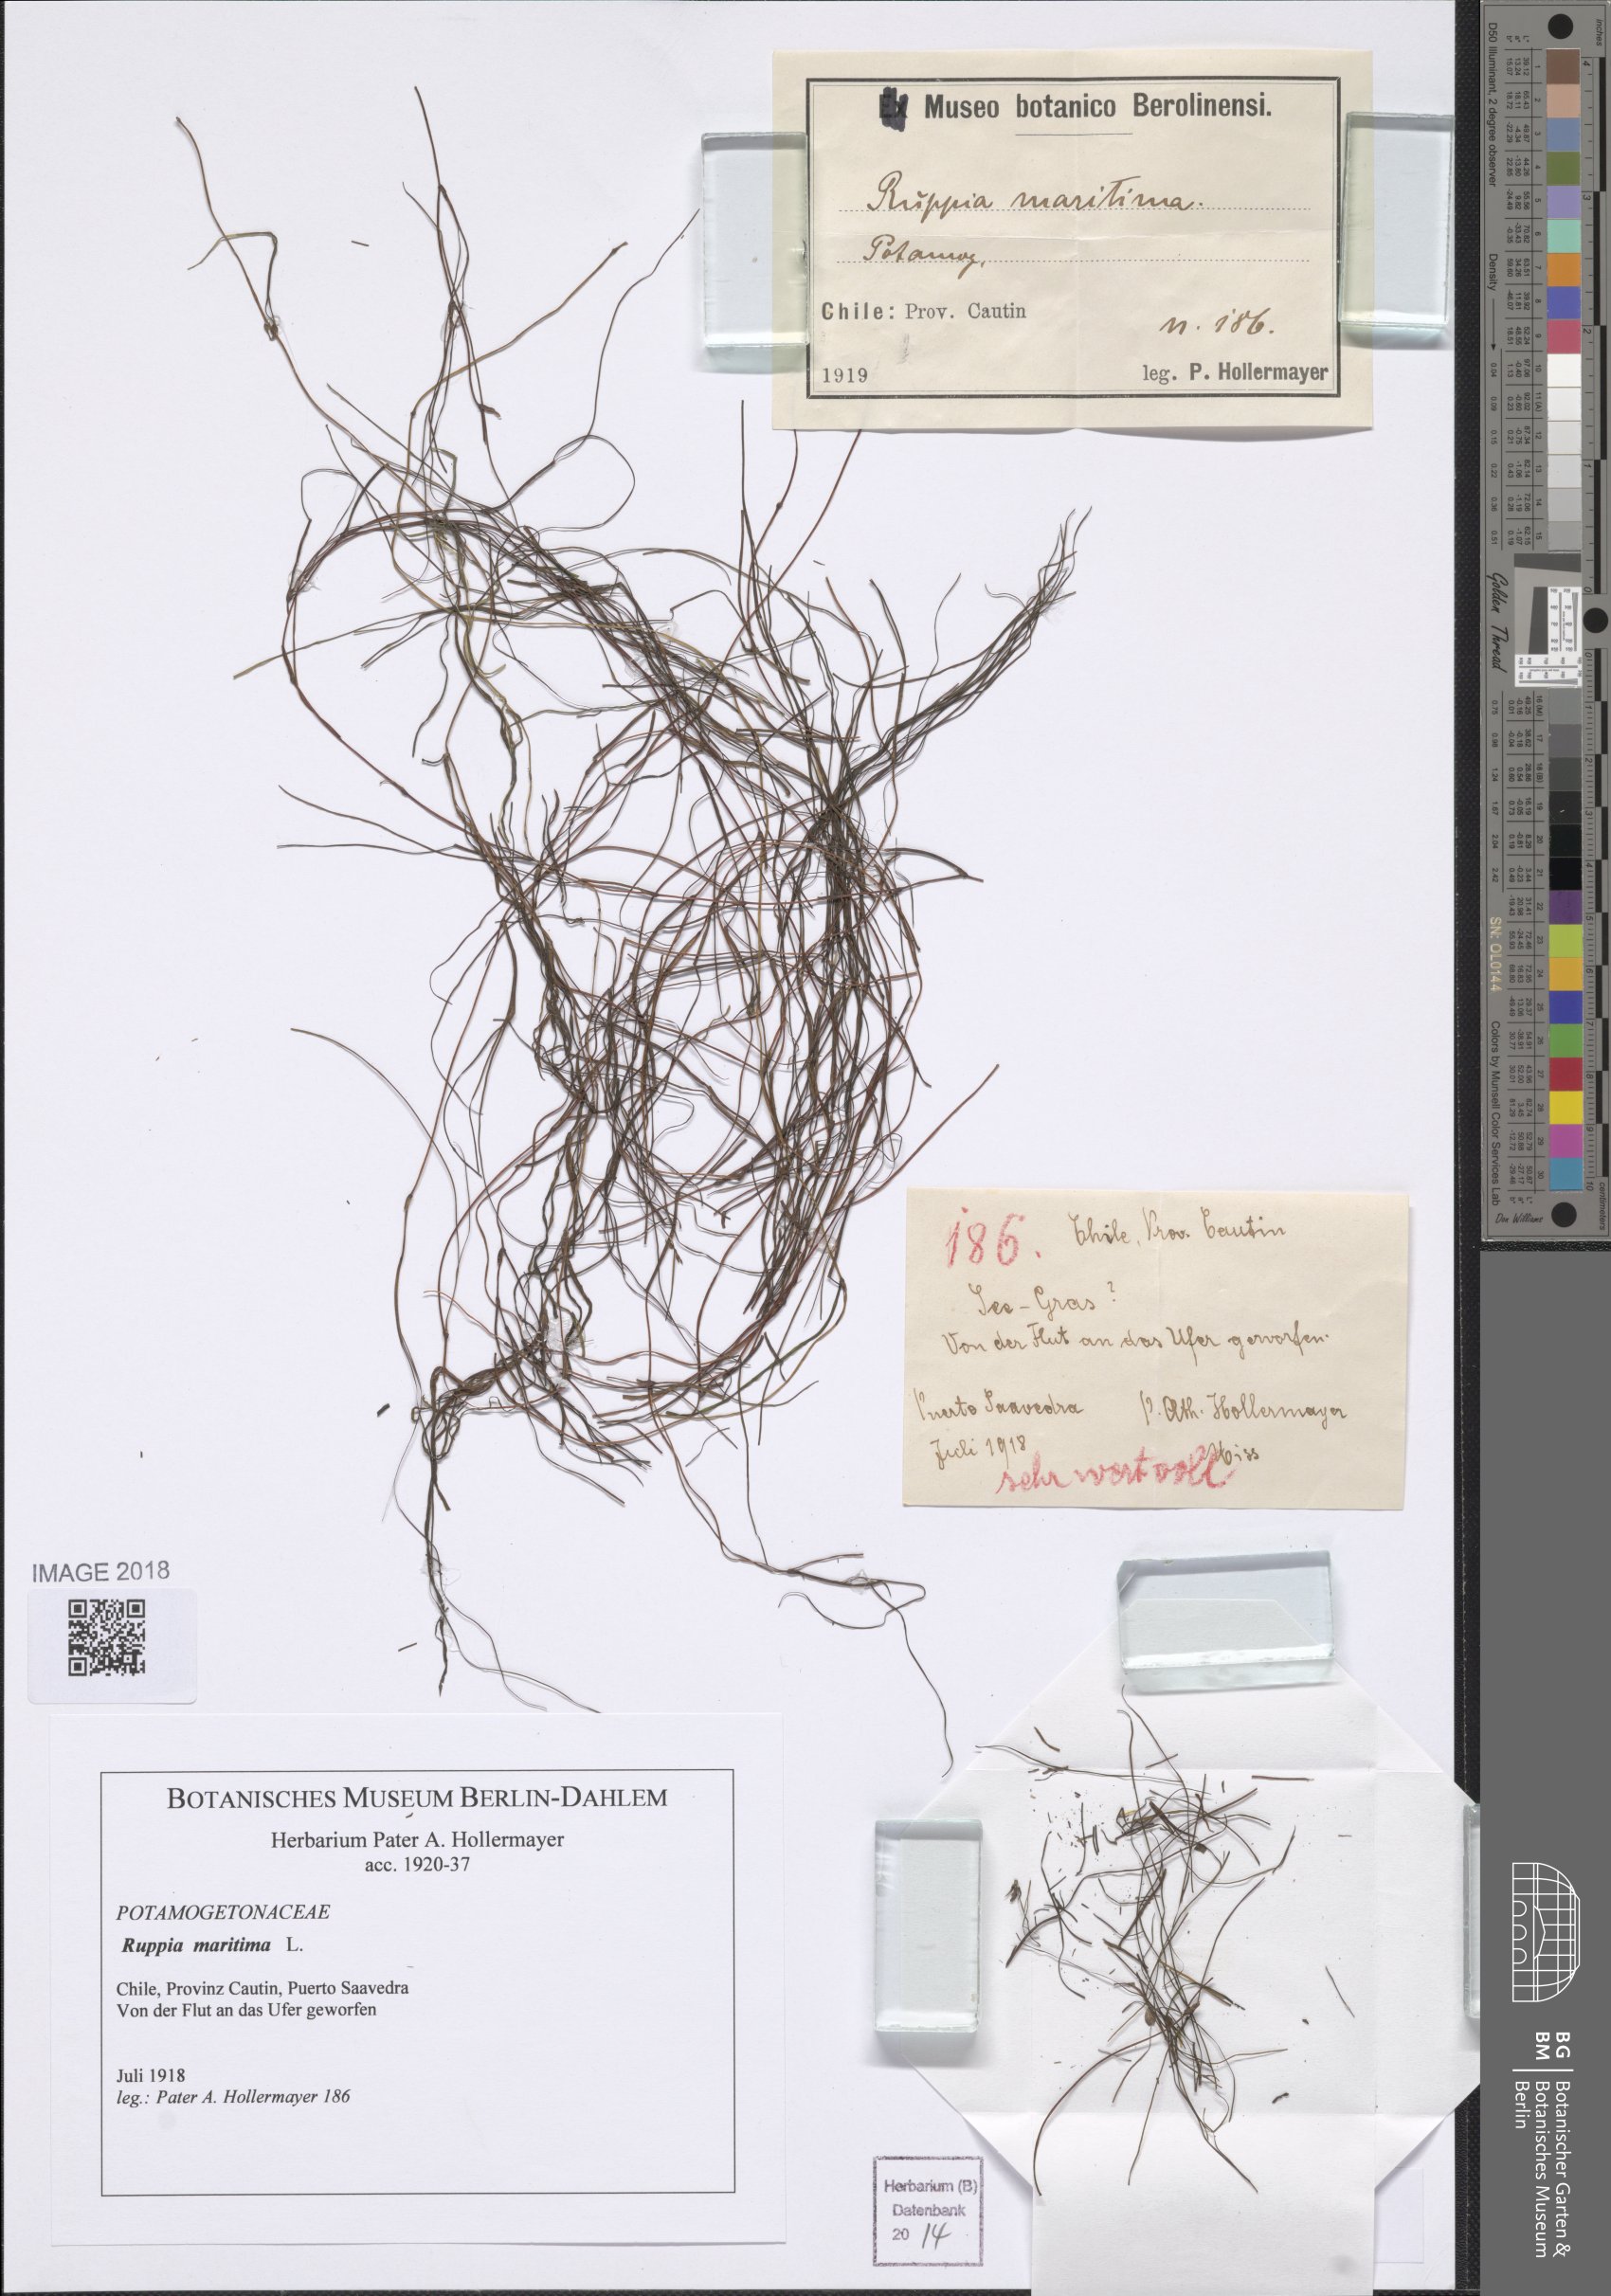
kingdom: Plantae
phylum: Tracheophyta
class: Liliopsida
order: Alismatales
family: Ruppiaceae
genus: Ruppia
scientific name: Ruppia maritima
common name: Beaked tasselweed
